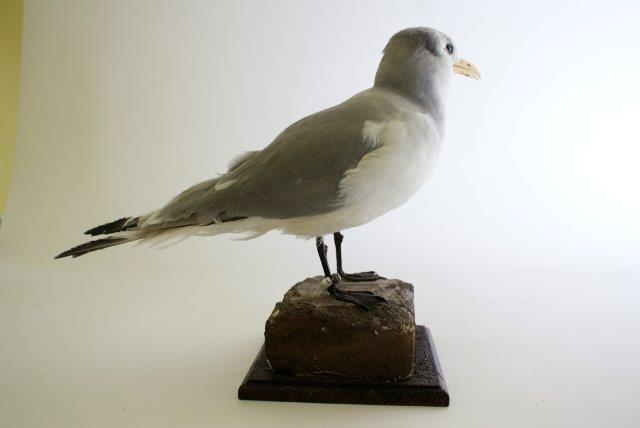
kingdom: Animalia
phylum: Chordata
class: Aves
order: Charadriiformes
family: Laridae
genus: Rissa
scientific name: Rissa tridactyla
